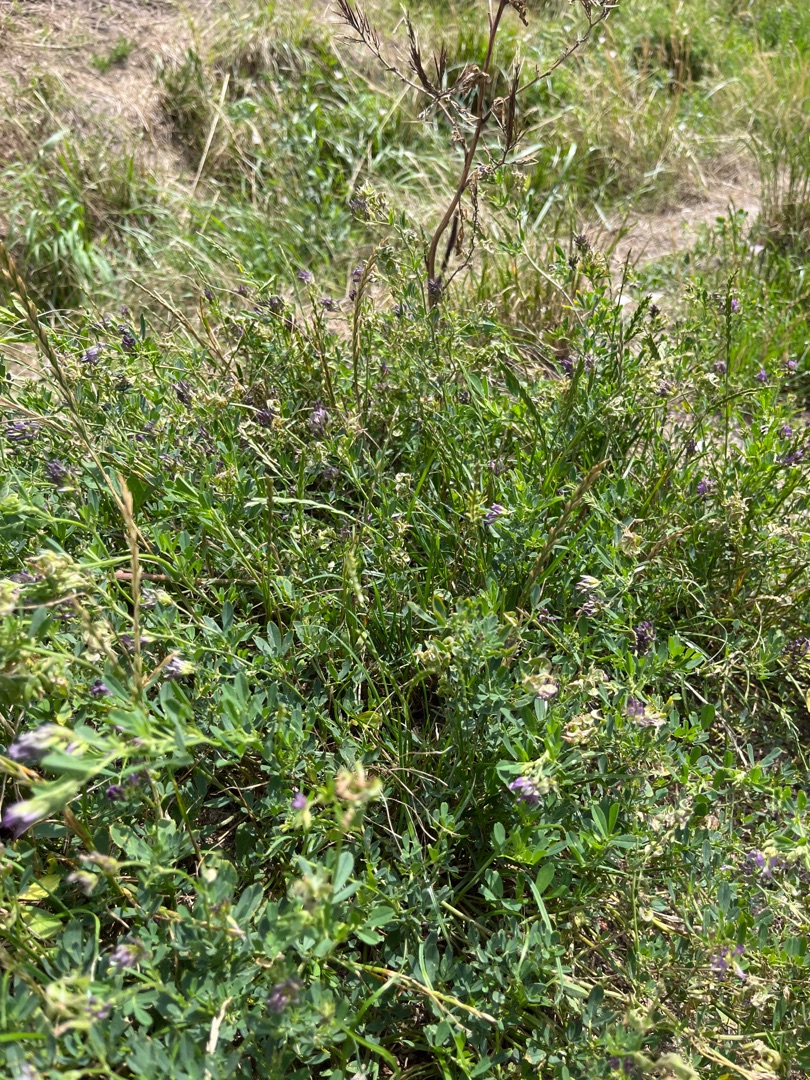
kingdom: Plantae
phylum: Tracheophyta
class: Magnoliopsida
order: Fabales
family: Fabaceae
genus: Medicago
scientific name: Medicago sativa
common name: Lucerne
